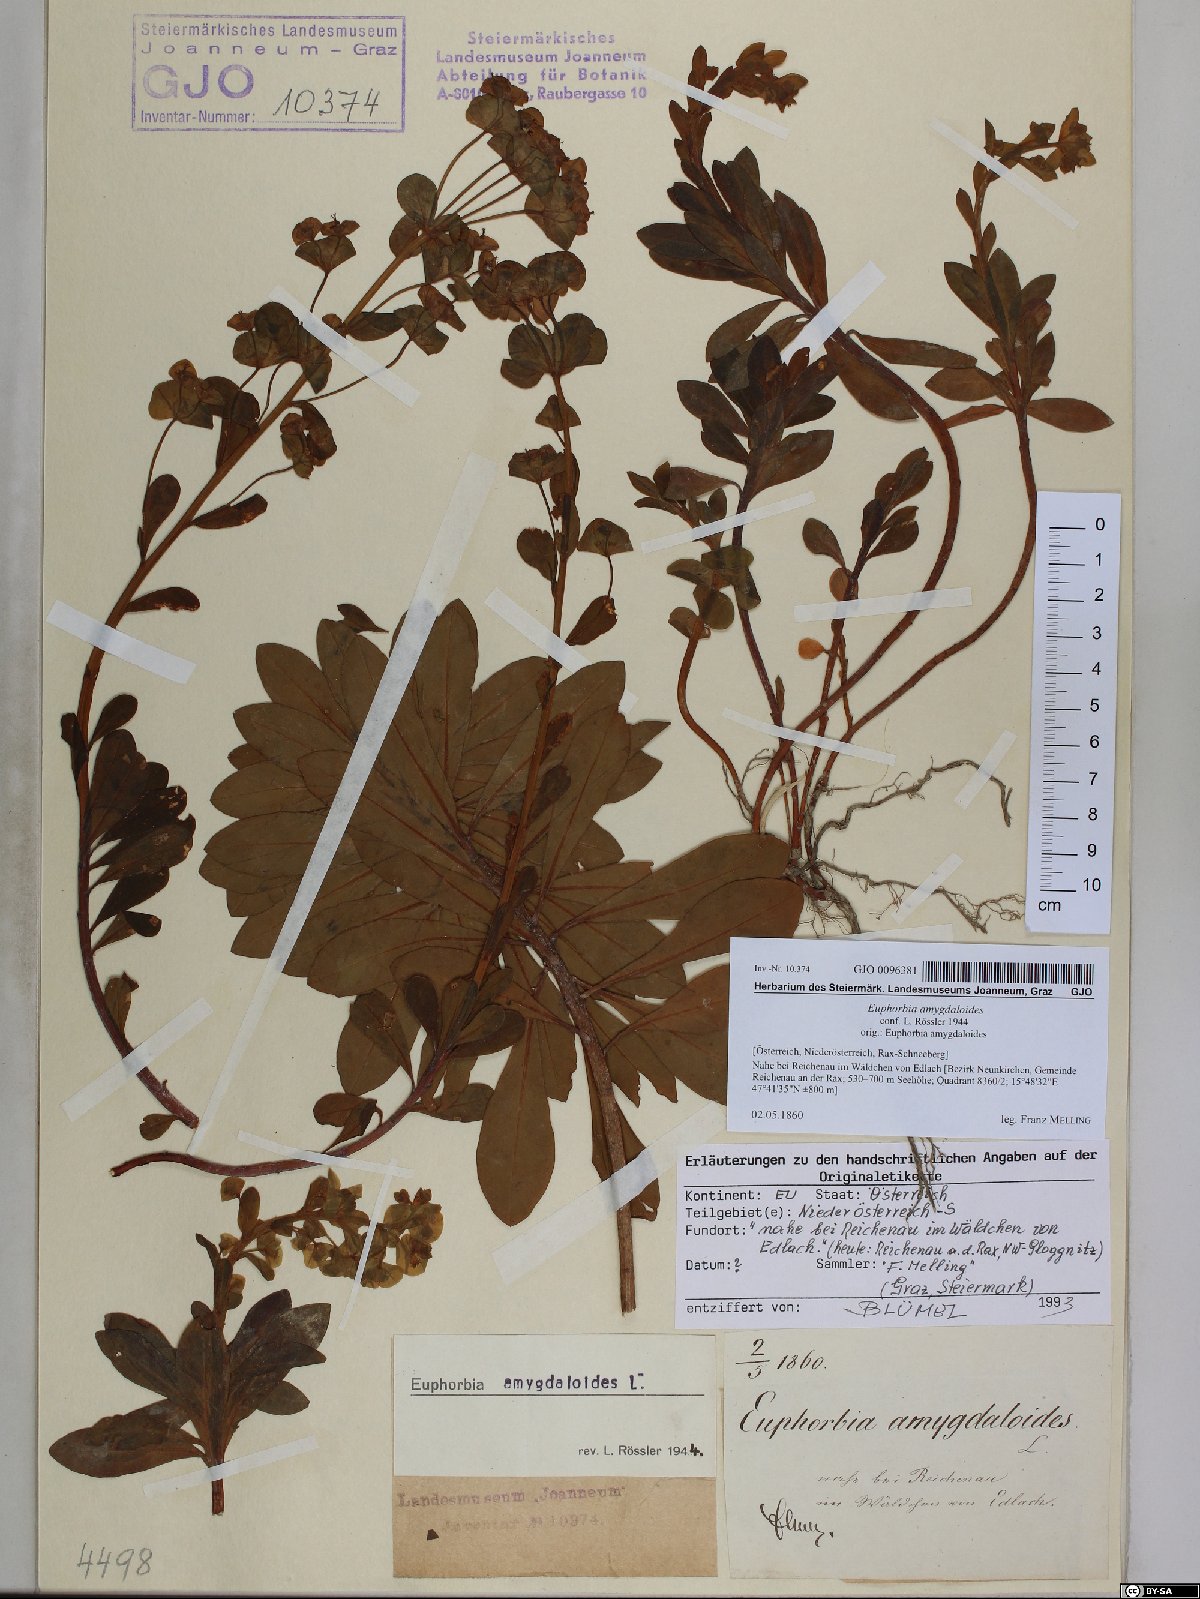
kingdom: Plantae
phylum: Tracheophyta
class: Magnoliopsida
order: Malpighiales
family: Euphorbiaceae
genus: Euphorbia
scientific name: Euphorbia amygdaloides
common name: Wood spurge
